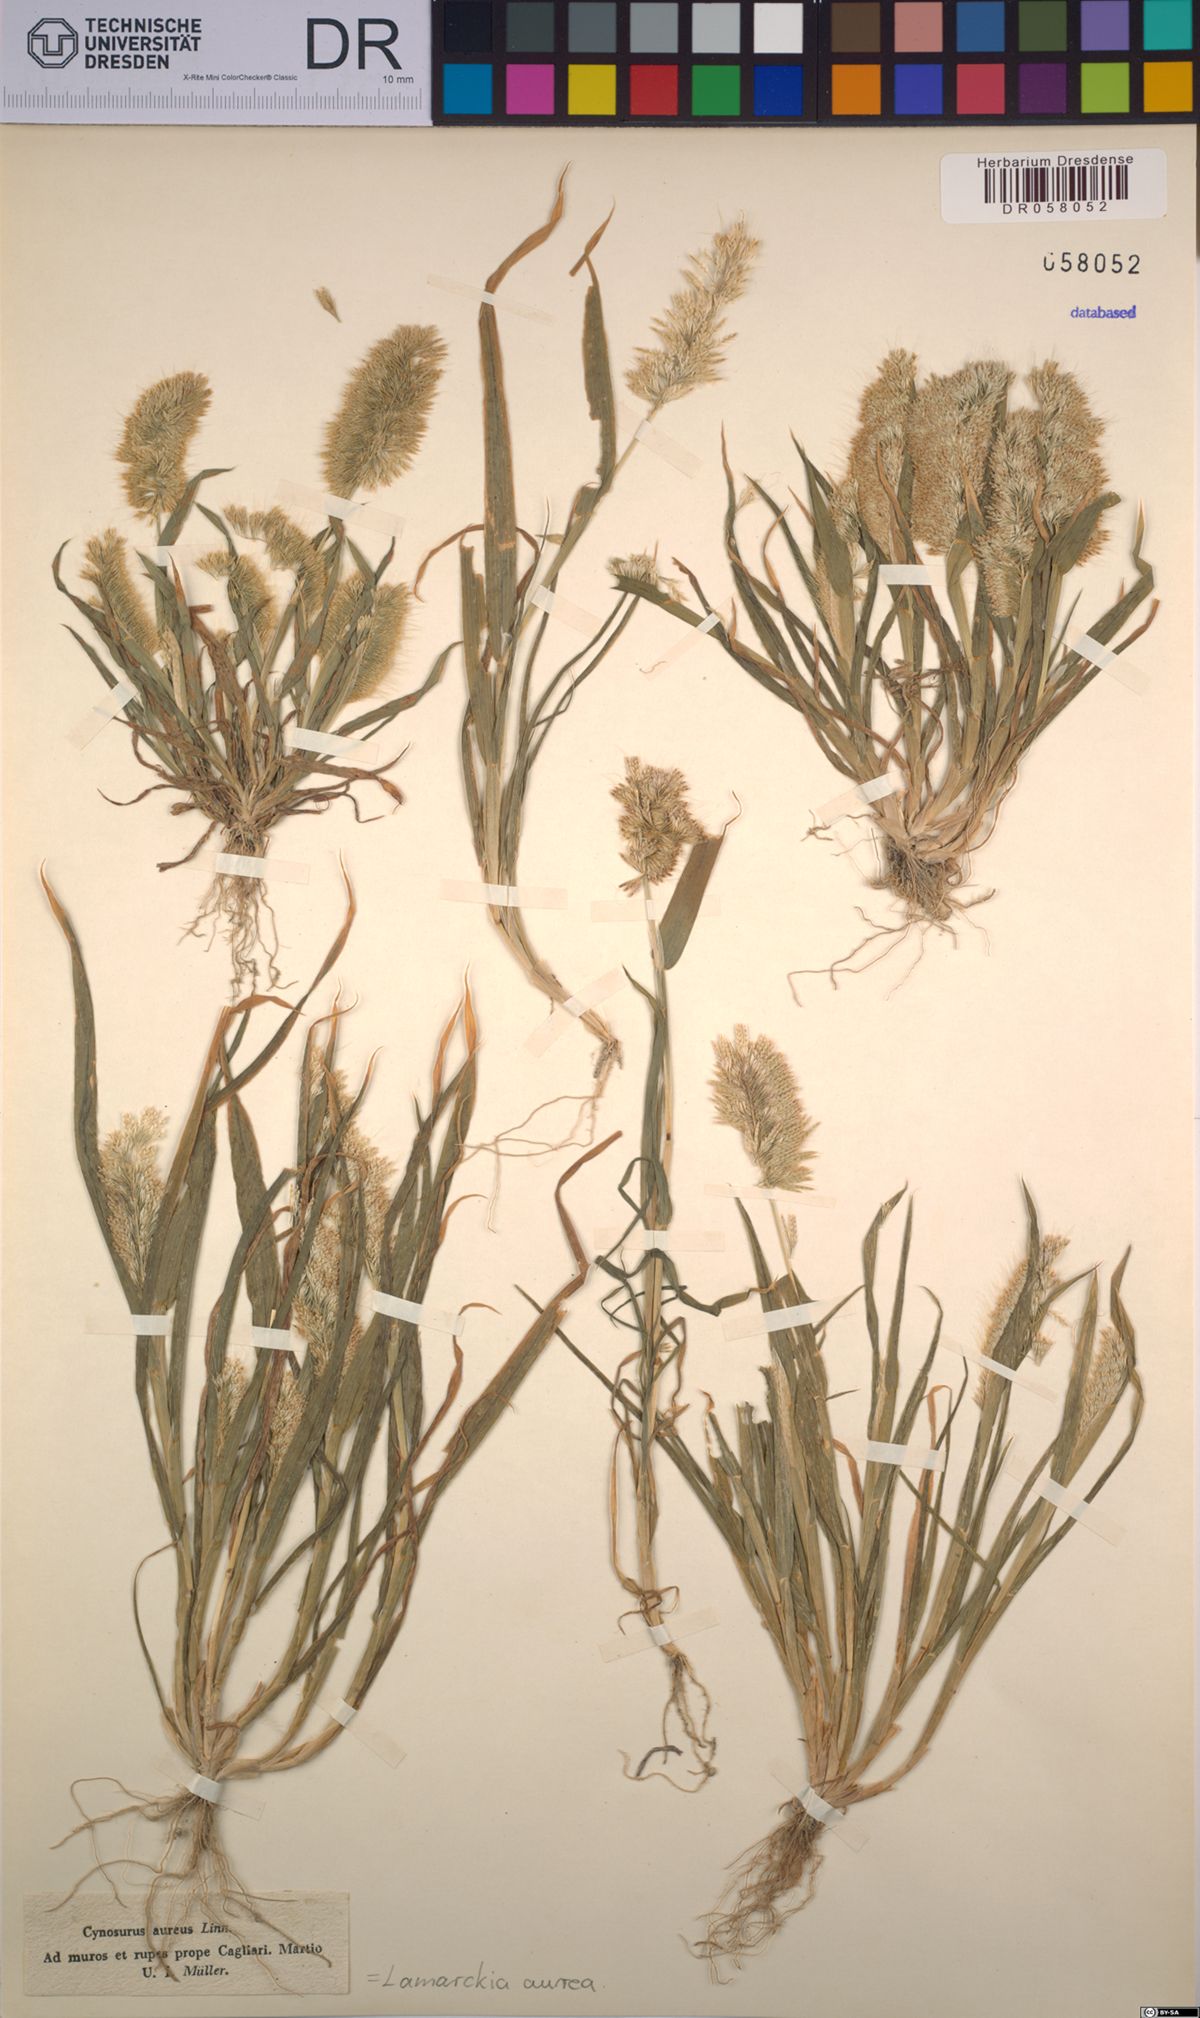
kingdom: Plantae
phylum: Tracheophyta
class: Liliopsida
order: Poales
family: Poaceae
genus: Lamarckia
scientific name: Lamarckia aurea
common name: Golden dog's-tail
